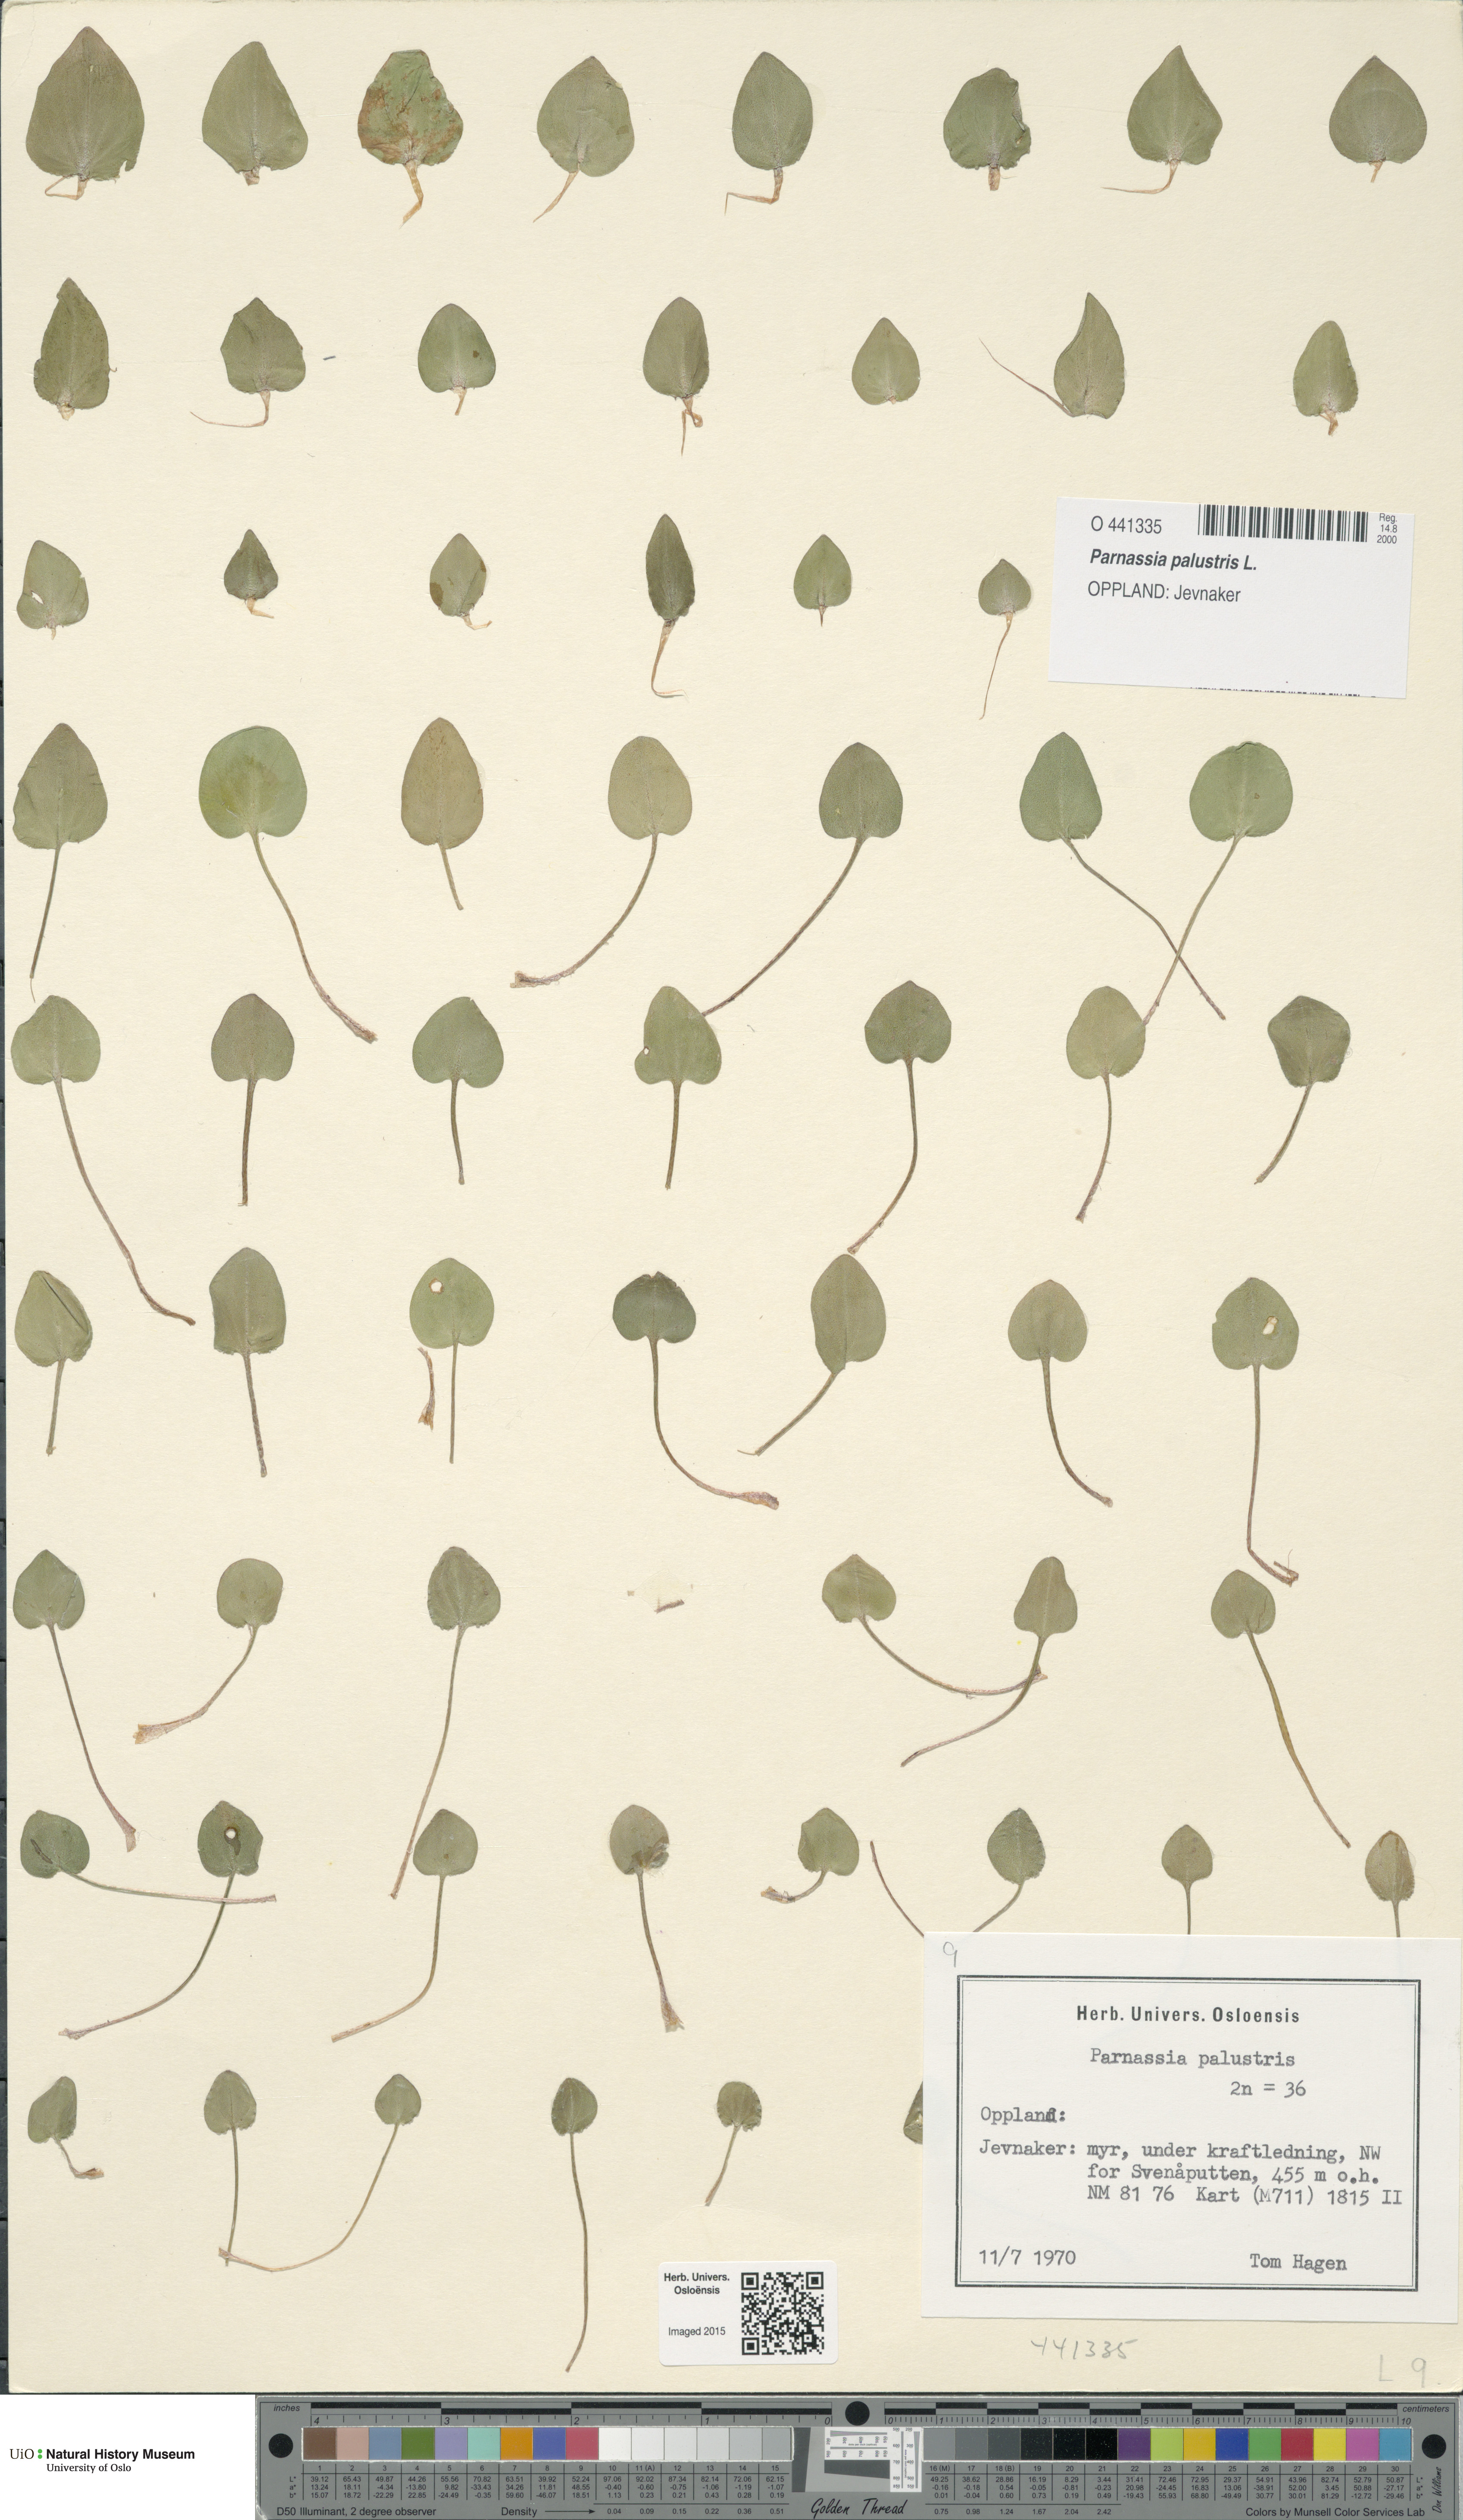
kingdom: Plantae
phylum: Tracheophyta
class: Magnoliopsida
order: Celastrales
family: Parnassiaceae
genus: Parnassia
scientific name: Parnassia palustris
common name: Grass-of-parnassus
